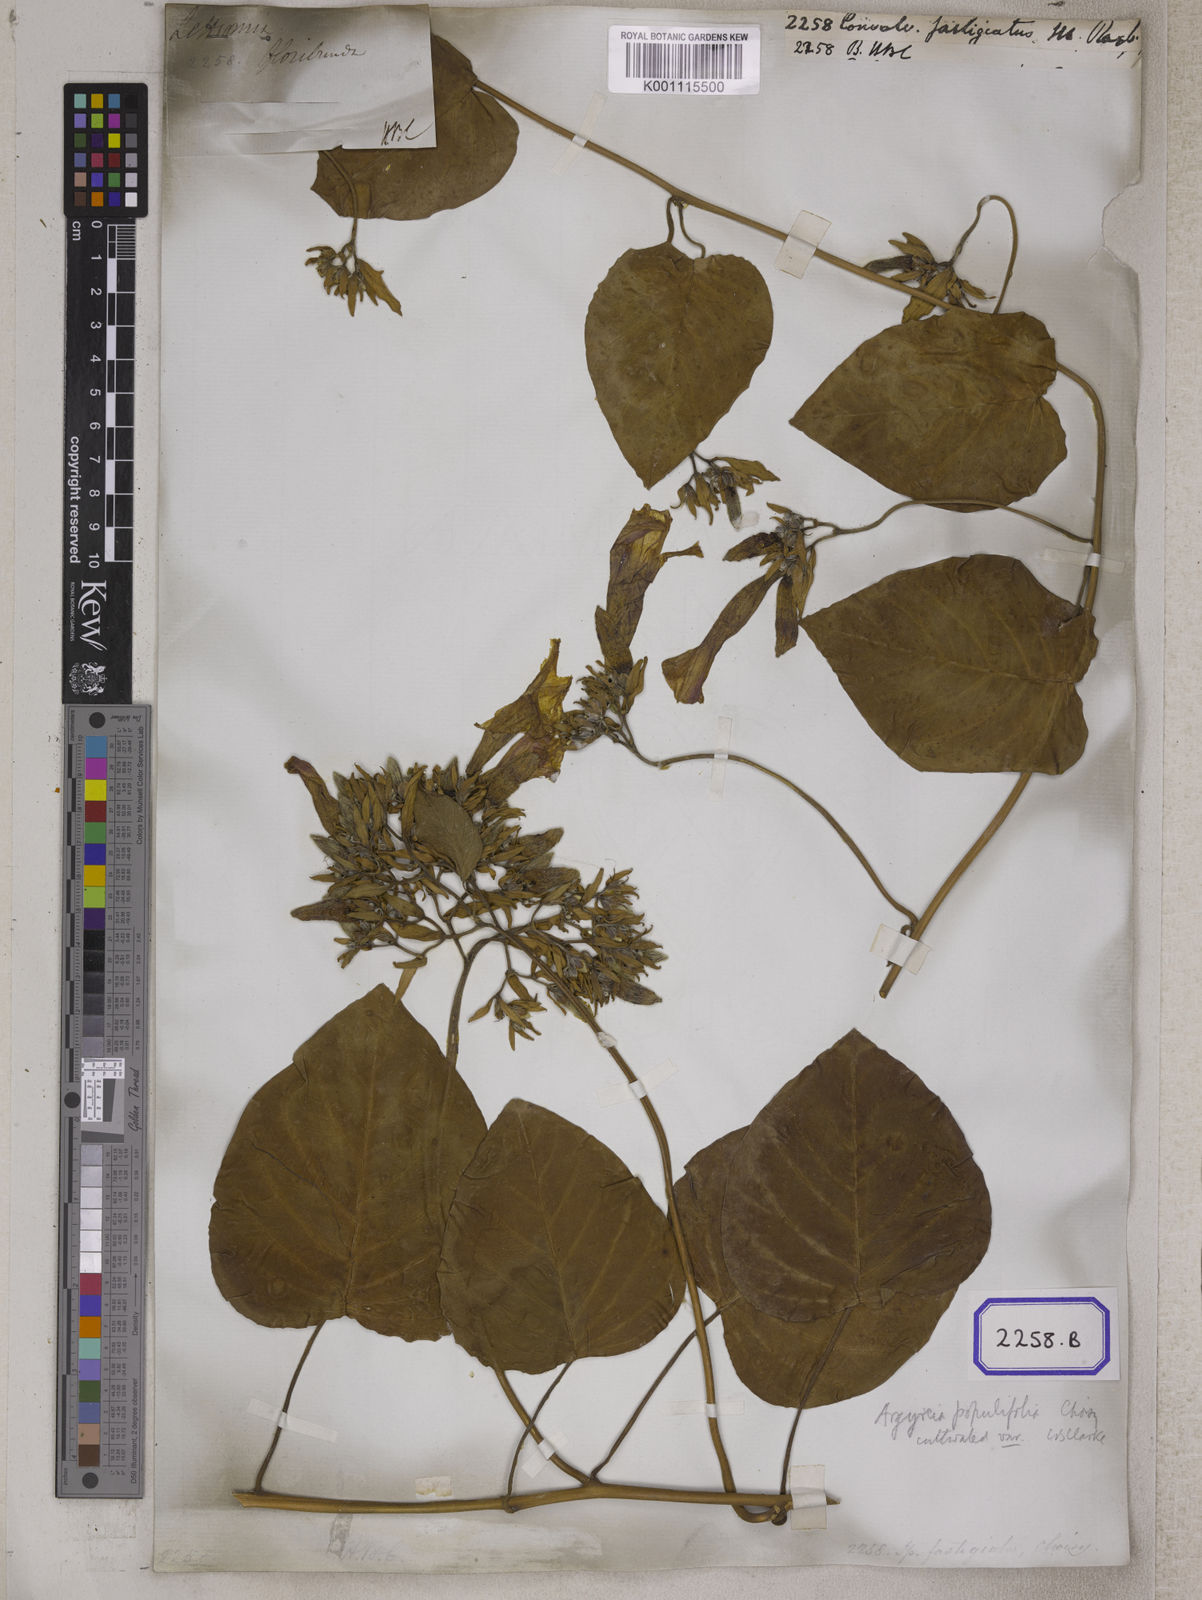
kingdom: Plantae
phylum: Tracheophyta
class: Magnoliopsida
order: Solanales
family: Convolvulaceae
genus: Convolvulus
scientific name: Convolvulus
